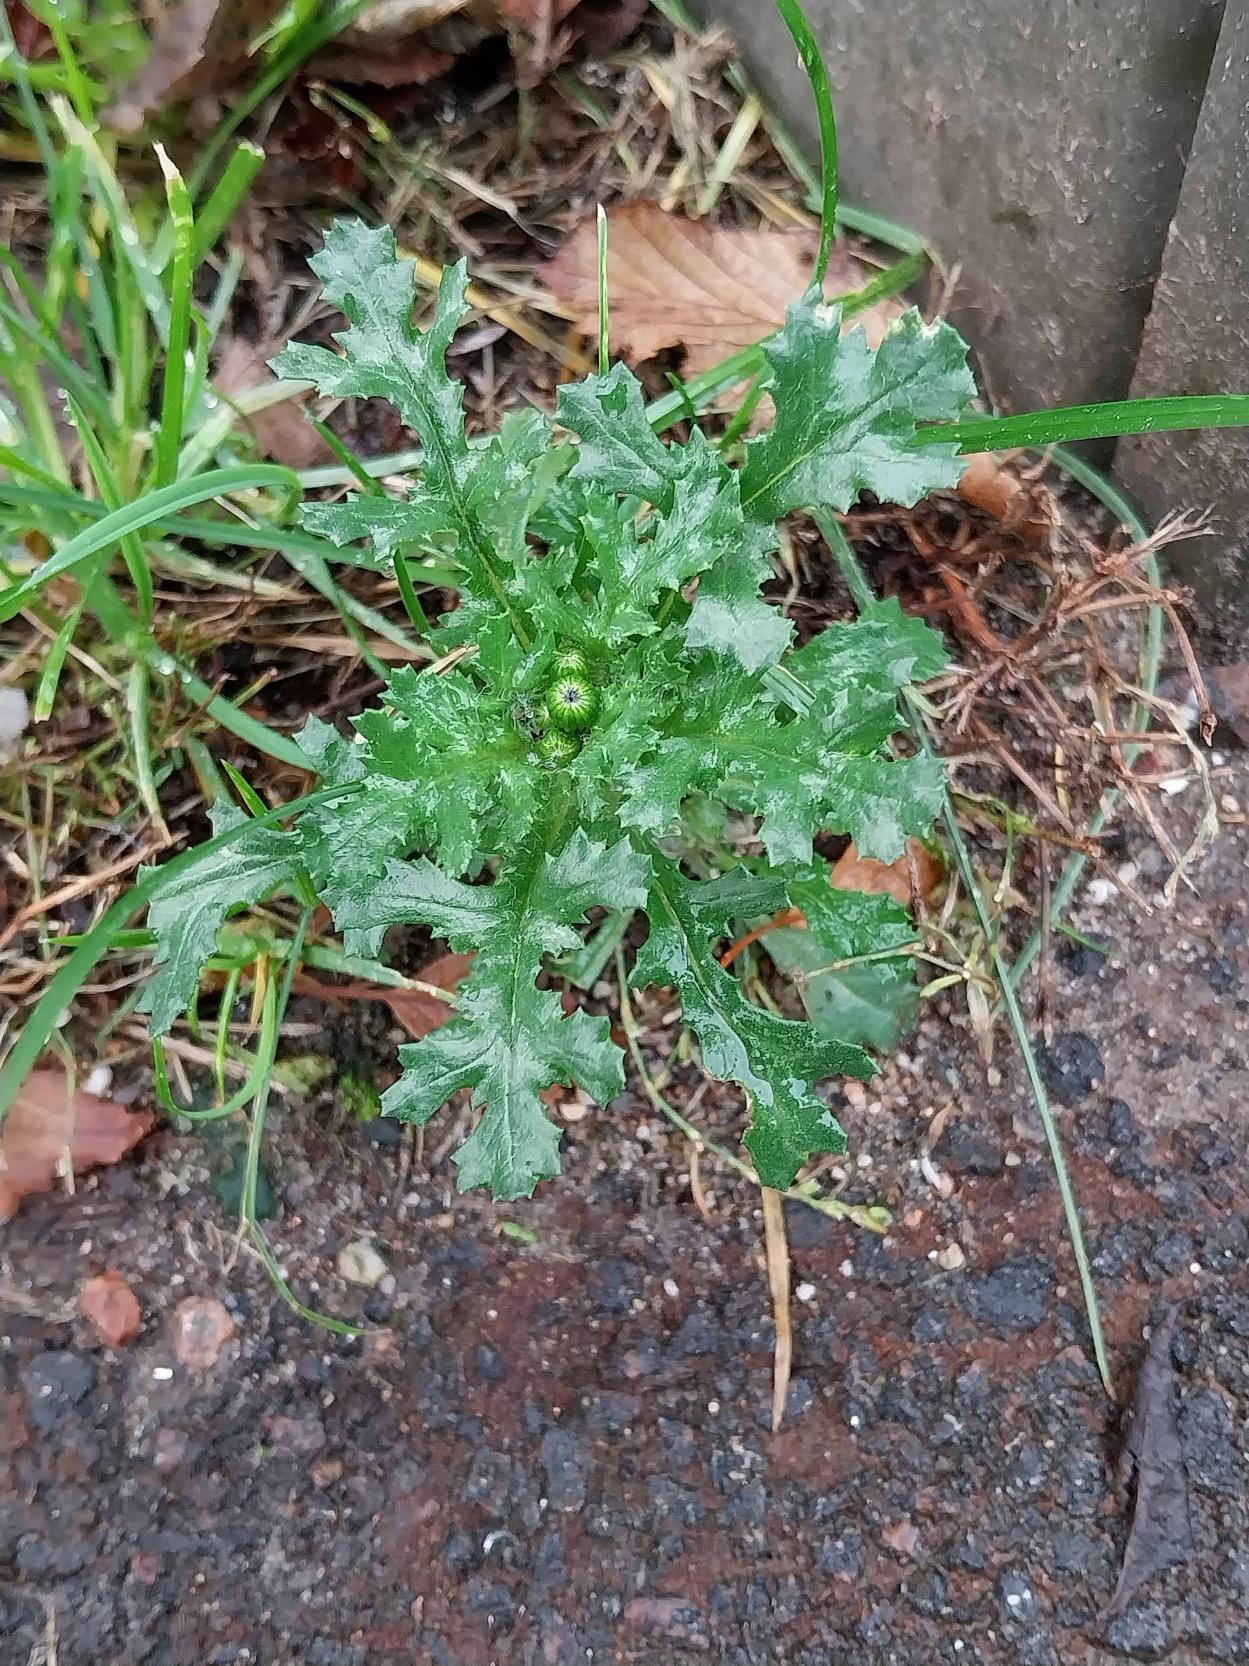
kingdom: Plantae
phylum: Tracheophyta
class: Magnoliopsida
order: Asterales
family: Asteraceae
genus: Senecio
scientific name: Senecio vulgaris
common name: Almindelig brandbæger
